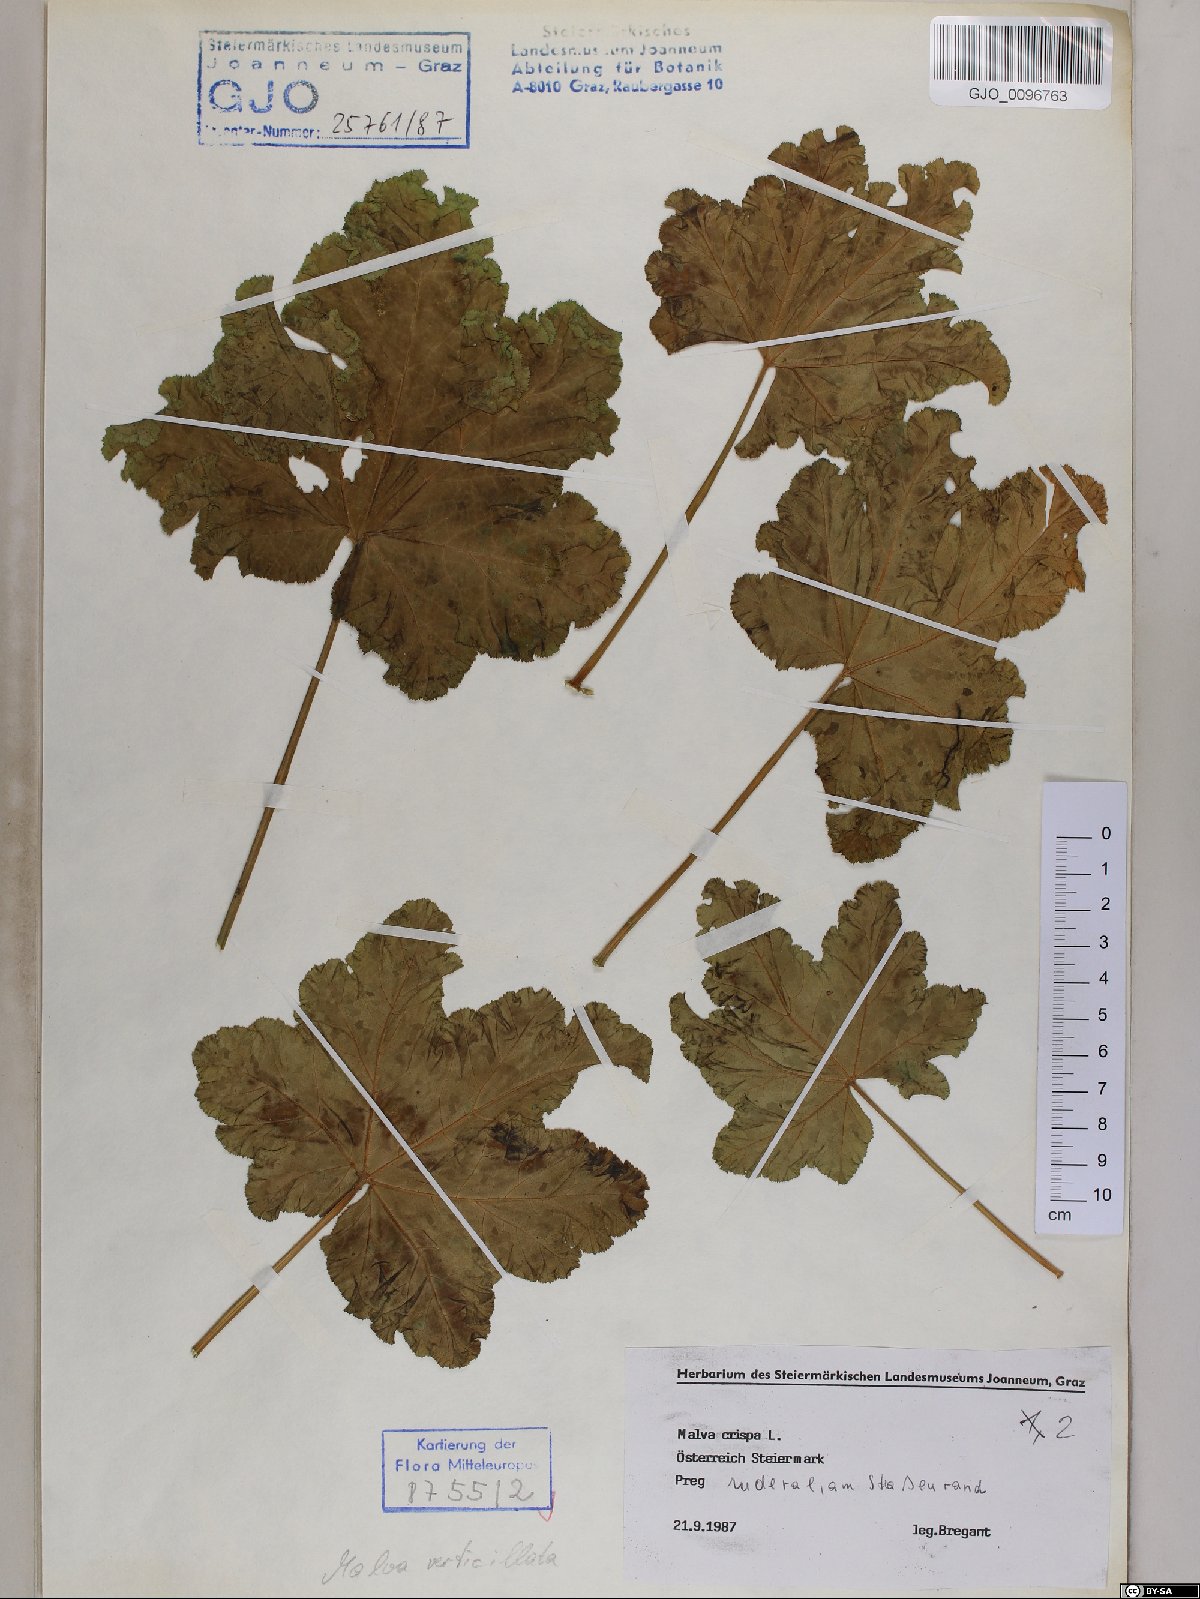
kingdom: Plantae
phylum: Tracheophyta
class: Magnoliopsida
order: Malvales
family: Malvaceae
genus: Malva
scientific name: Malva verticillata
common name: Chinese mallow
